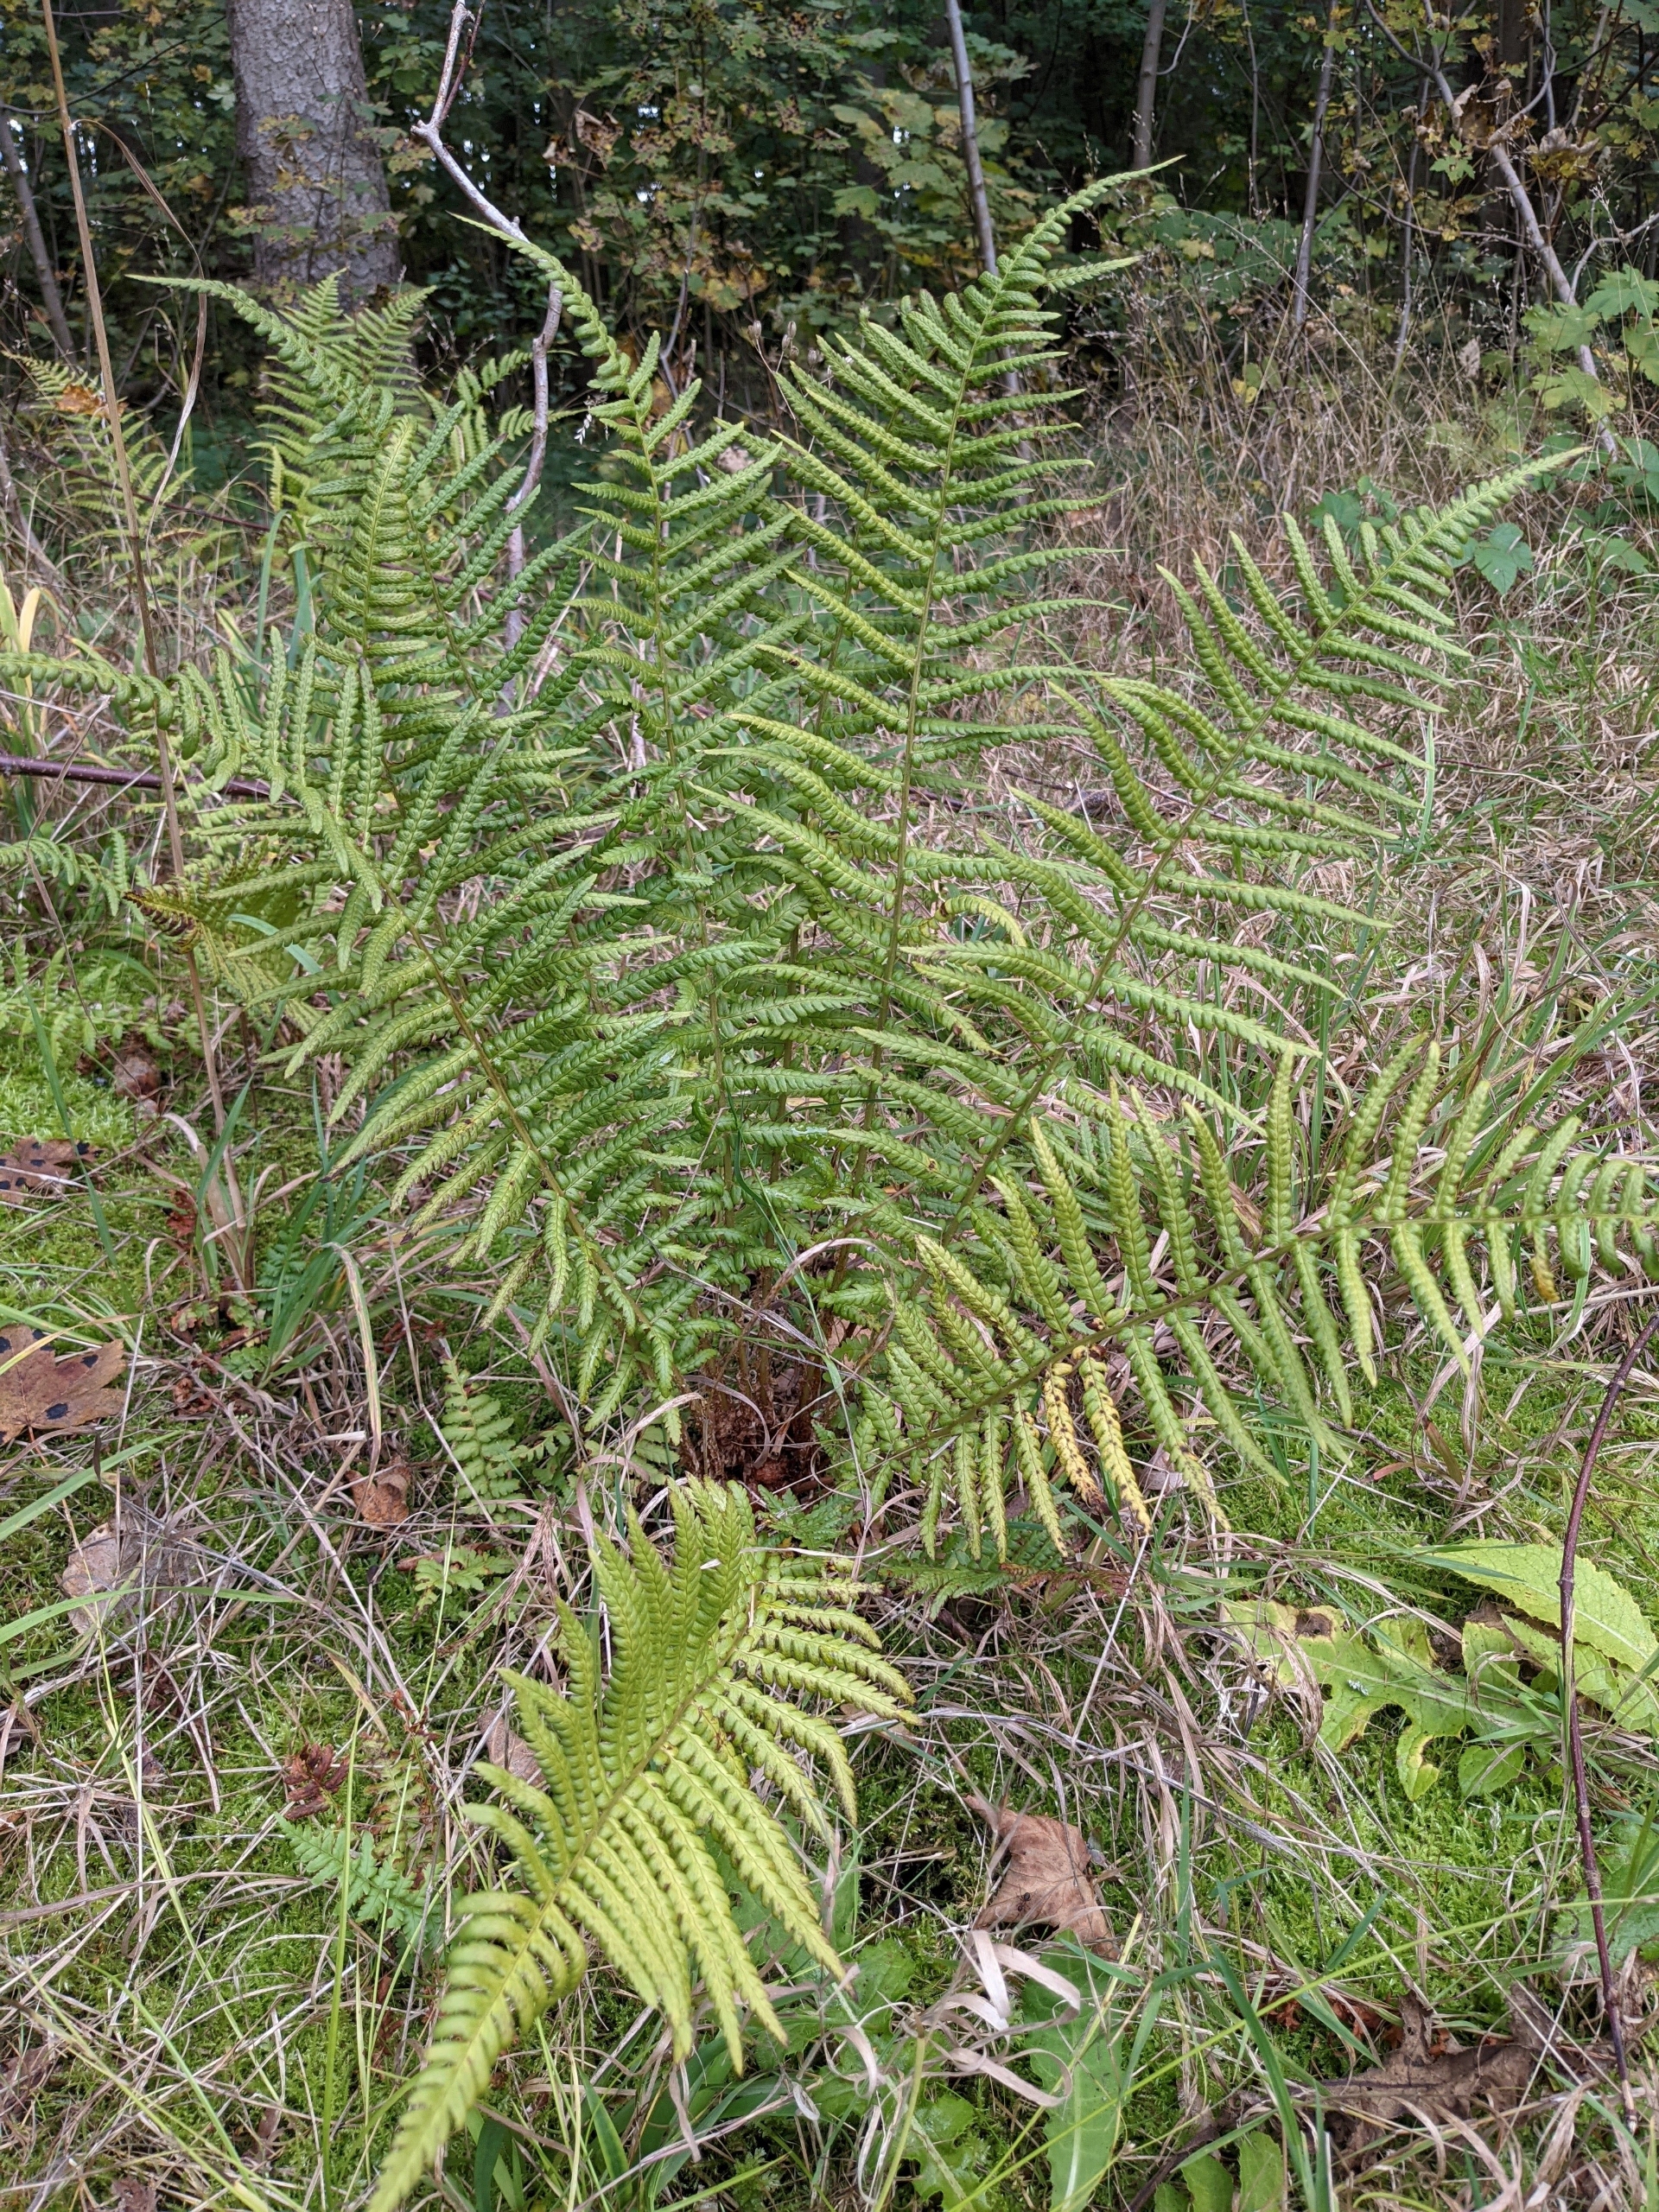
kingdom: Plantae
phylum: Tracheophyta
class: Polypodiopsida
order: Polypodiales
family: Dryopteridaceae
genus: Dryopteris
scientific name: Dryopteris filix-mas
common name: Almindelig mangeløv
